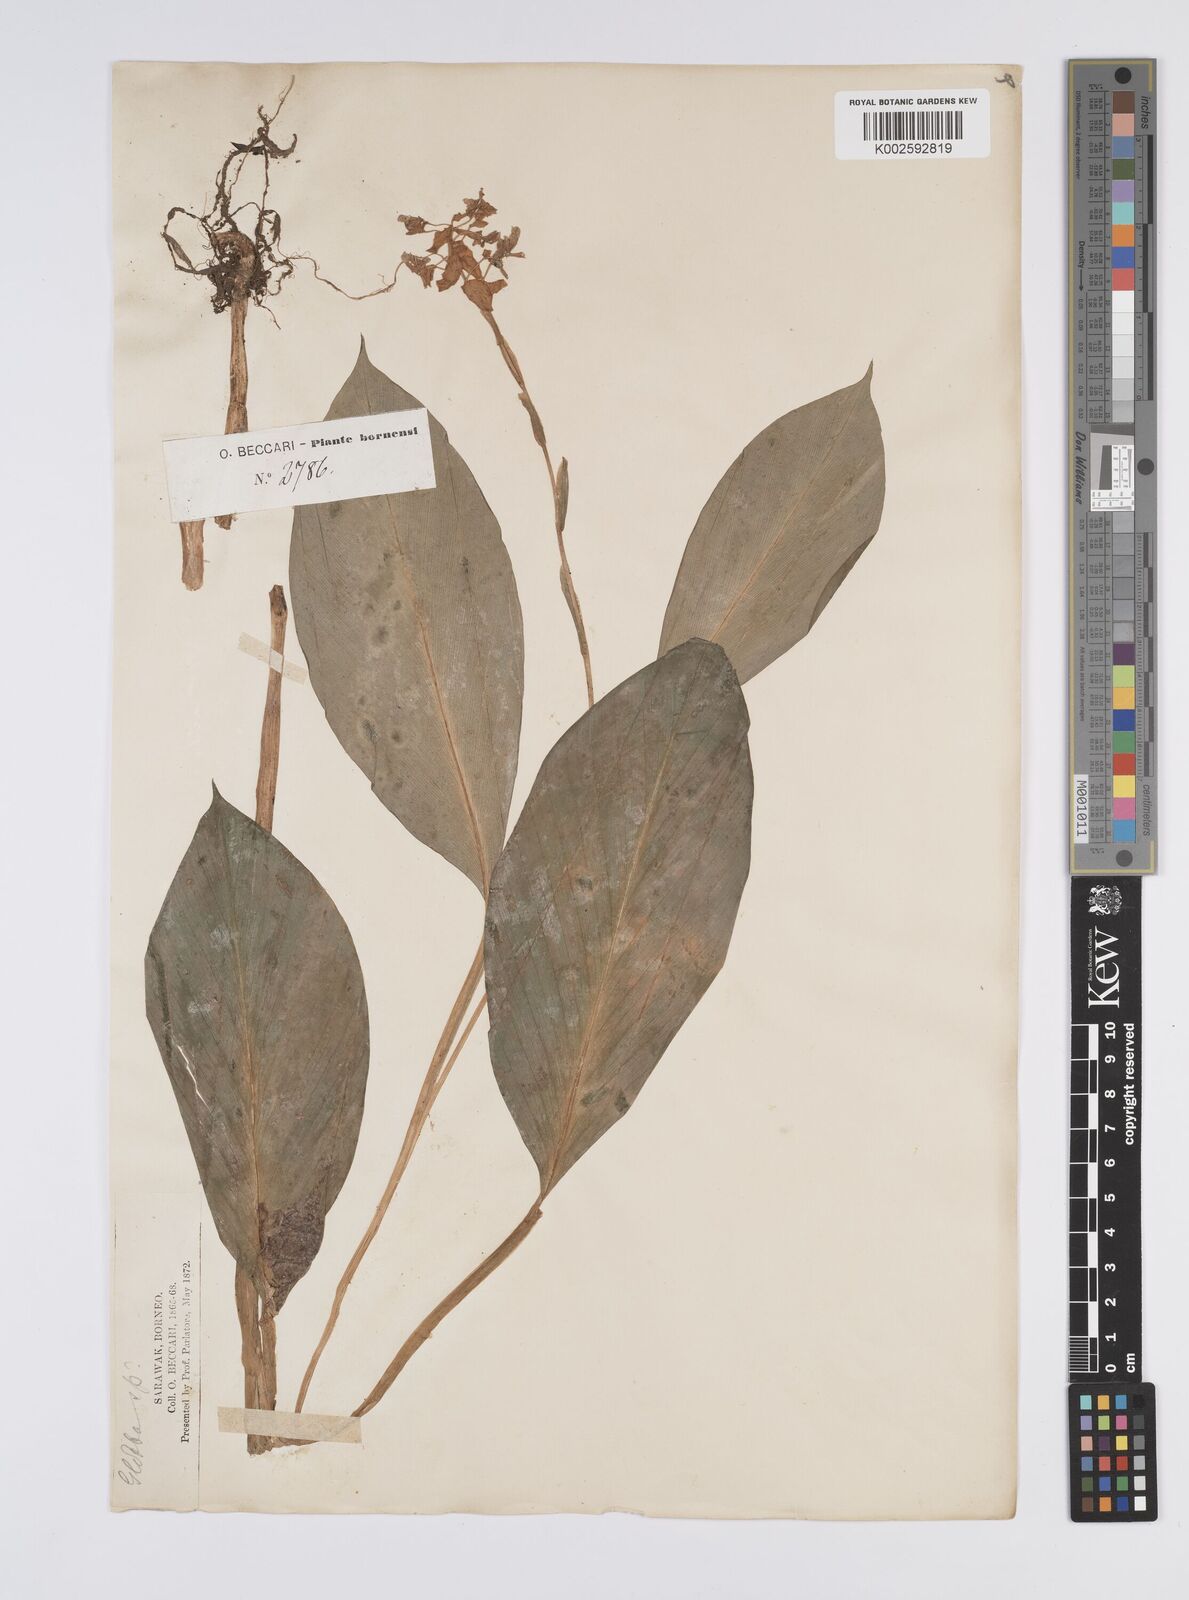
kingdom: Plantae
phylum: Tracheophyta
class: Liliopsida
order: Zingiberales
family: Zingiberaceae
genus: Globba
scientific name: Globba atrosanguinea
